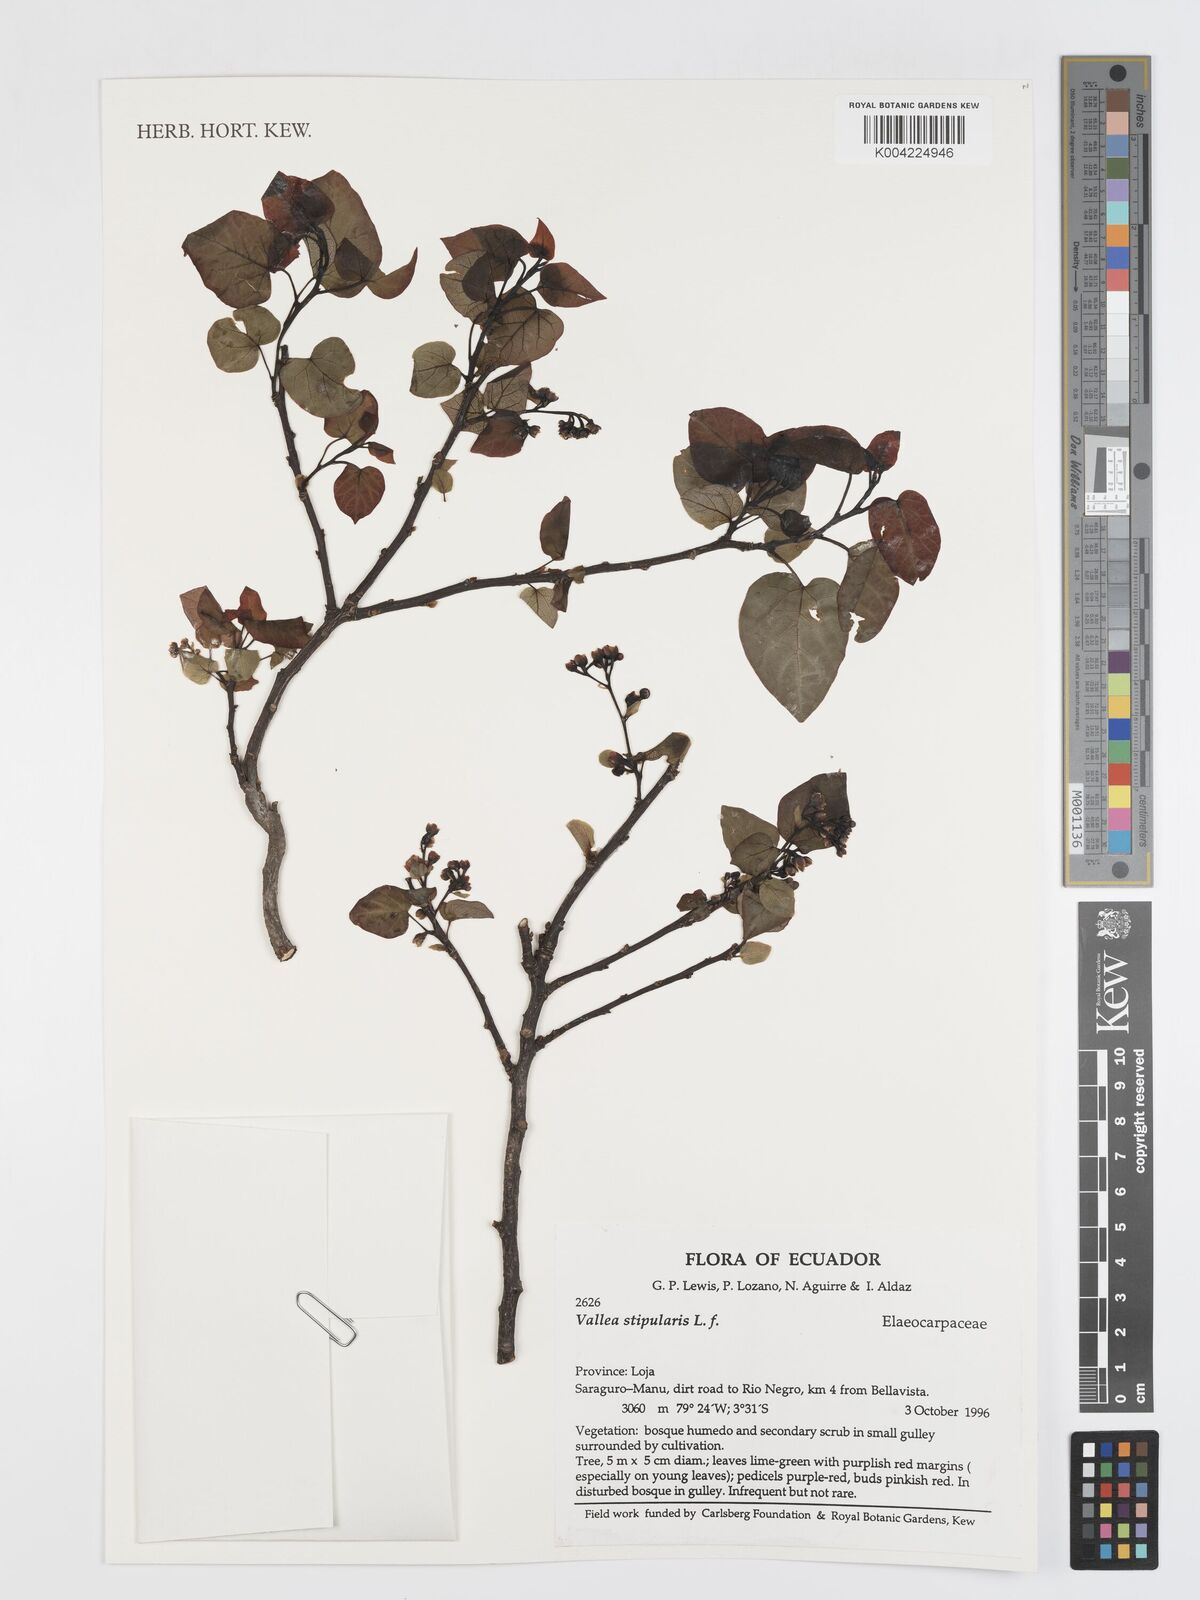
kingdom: Plantae
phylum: Tracheophyta
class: Magnoliopsida
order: Oxalidales
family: Elaeocarpaceae
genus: Vallea
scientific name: Vallea stipularis
